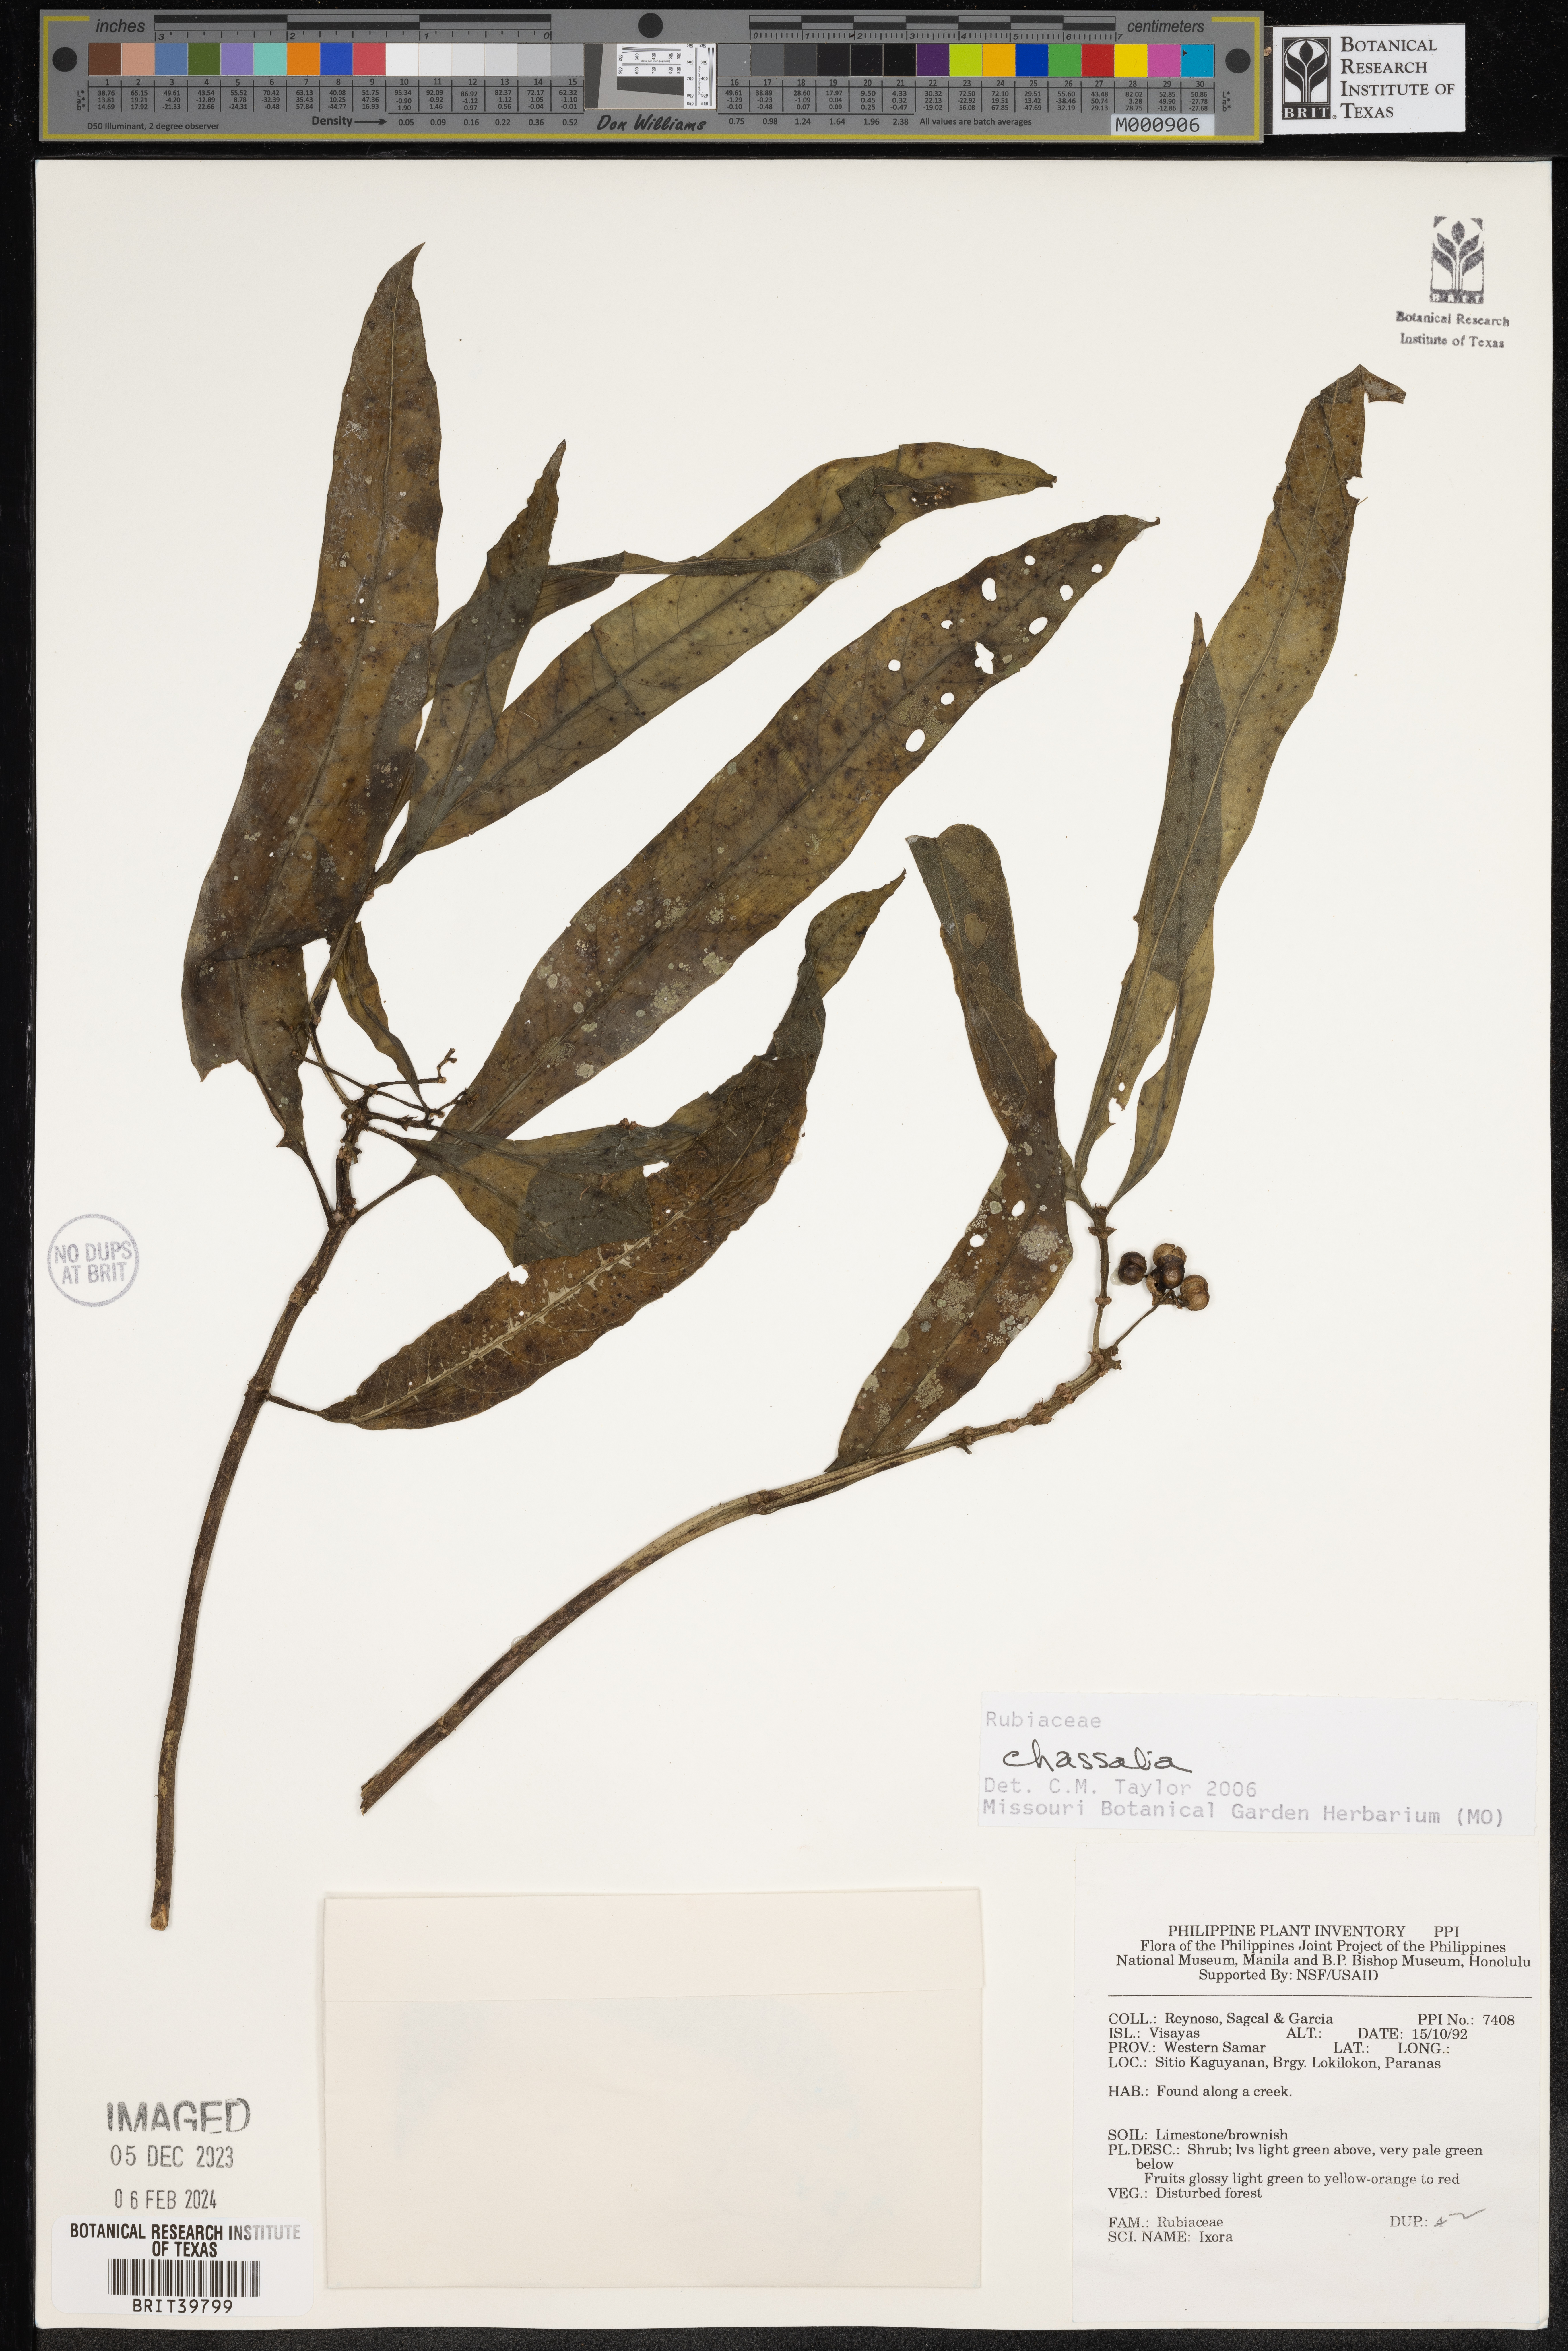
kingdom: Plantae
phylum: Tracheophyta
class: Magnoliopsida
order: Gentianales
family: Rubiaceae
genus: Chassalia
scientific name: Chassalia
